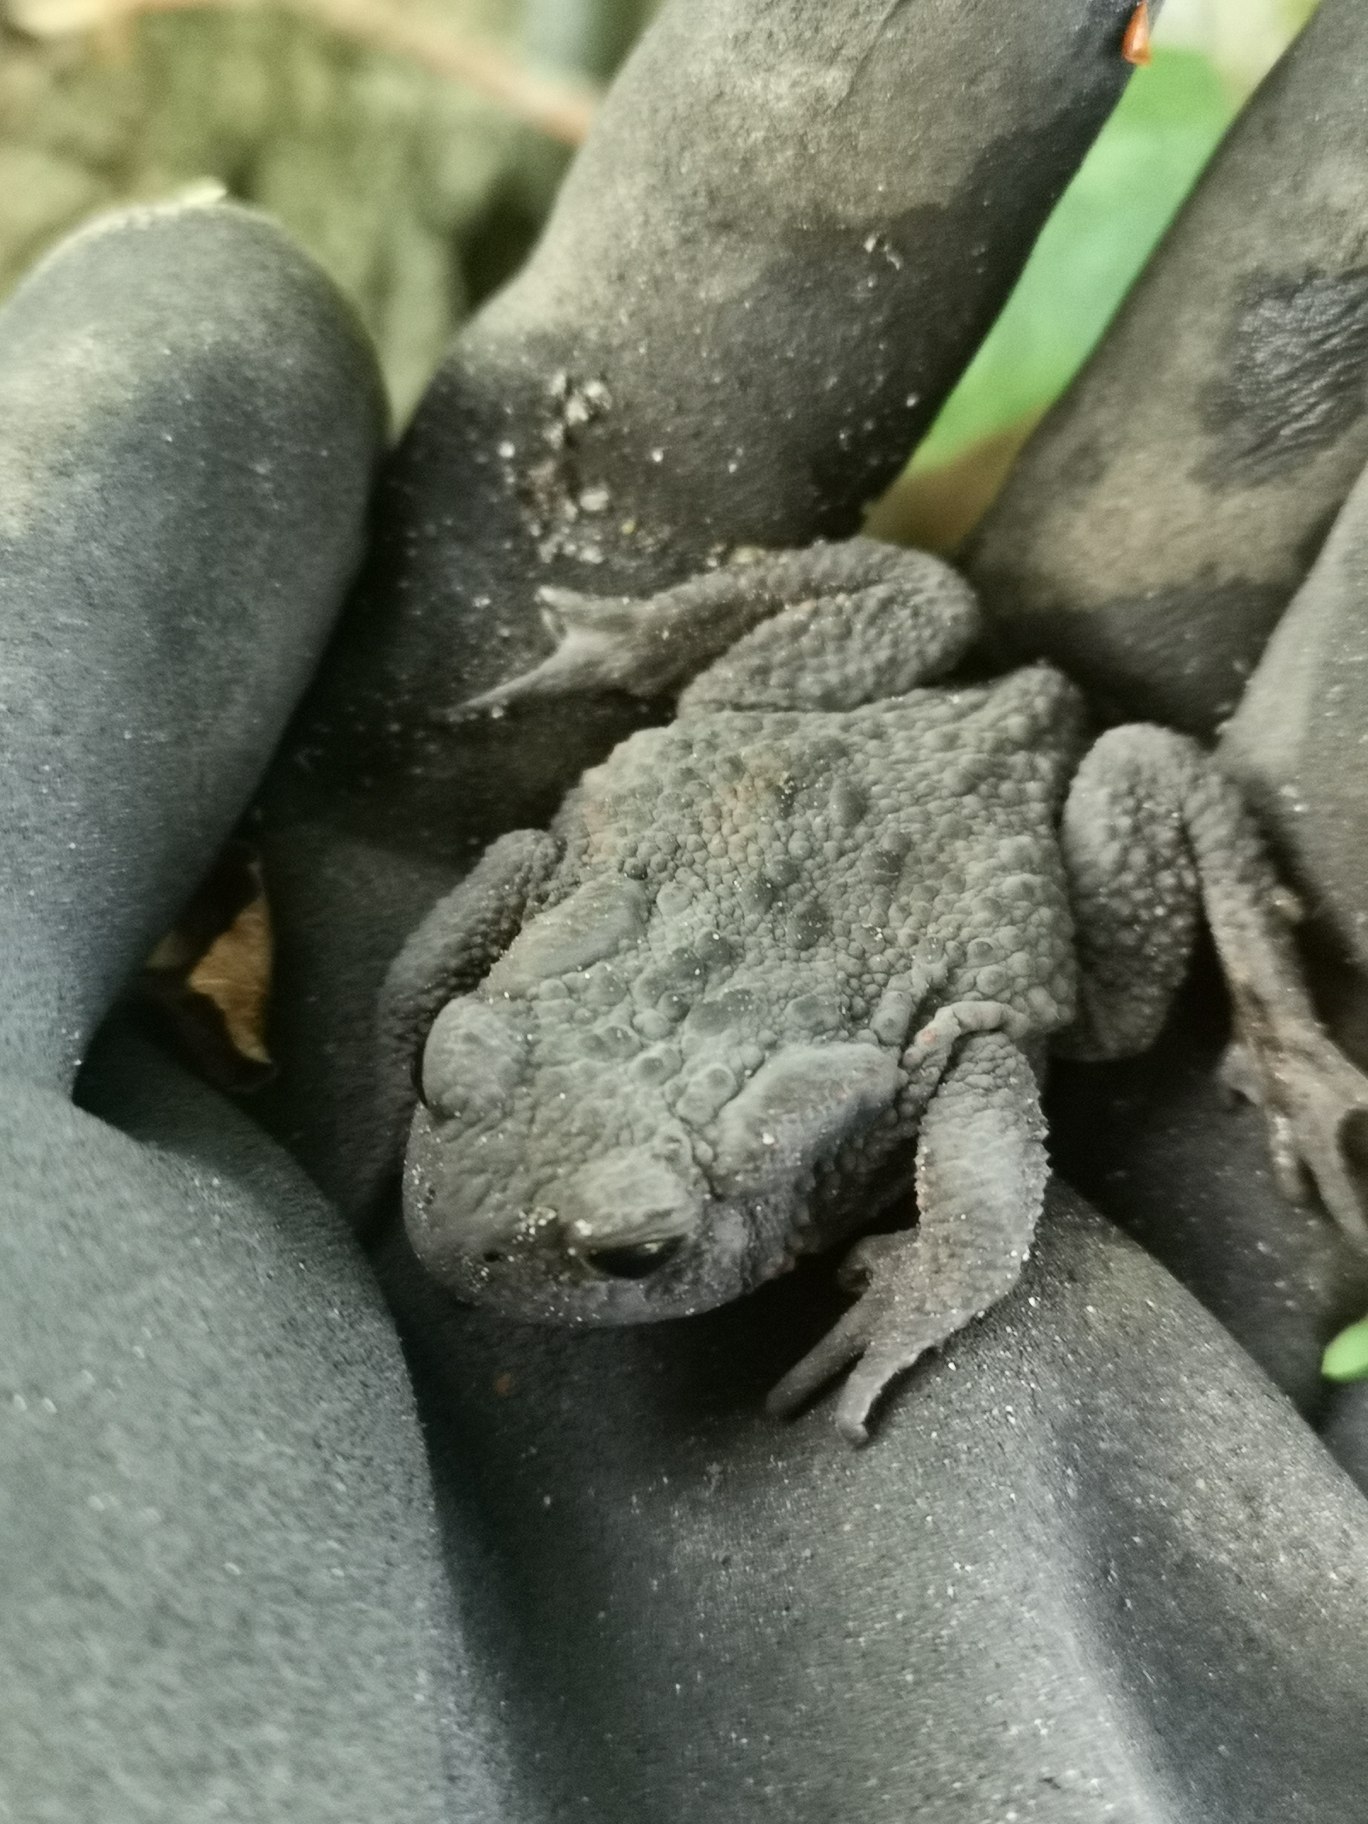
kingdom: Animalia
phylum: Chordata
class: Amphibia
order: Anura
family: Bufonidae
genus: Bufo
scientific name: Bufo bufo
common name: Skrubtudse
